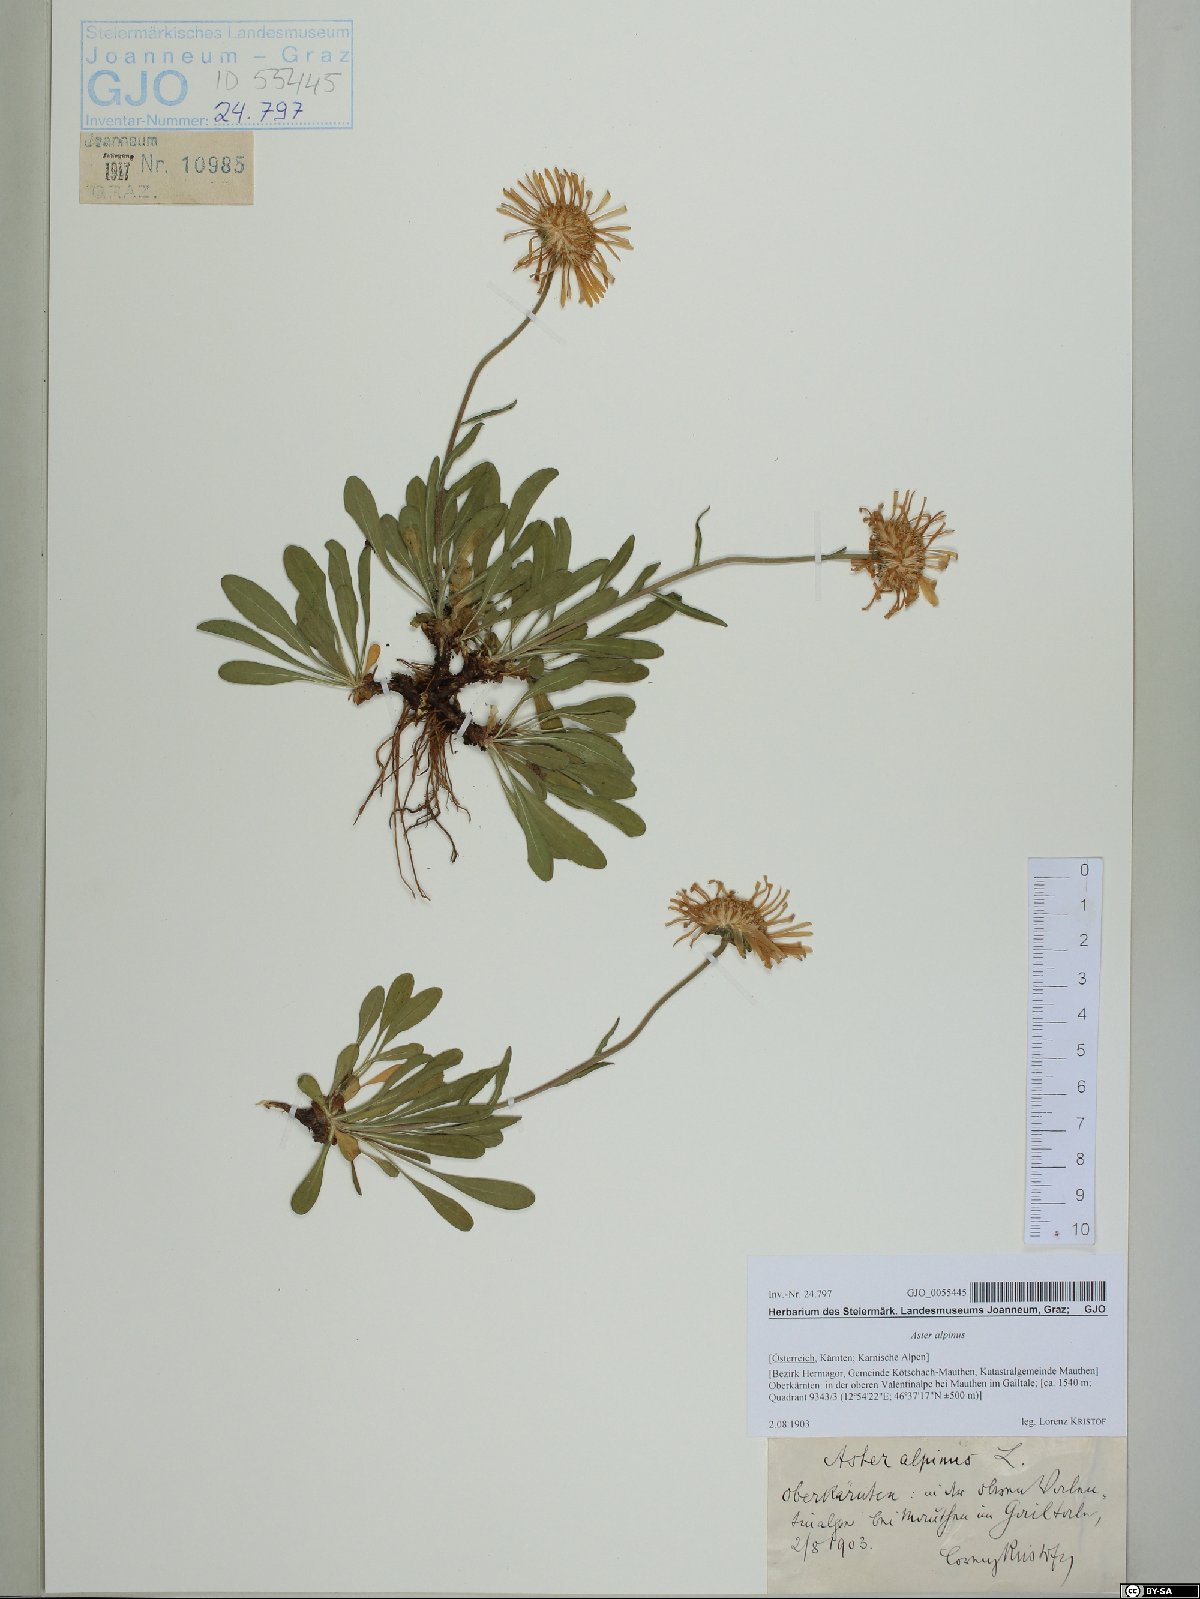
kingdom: Plantae
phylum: Tracheophyta
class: Magnoliopsida
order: Asterales
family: Asteraceae
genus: Aster
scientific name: Aster alpinus
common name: Alpine aster
